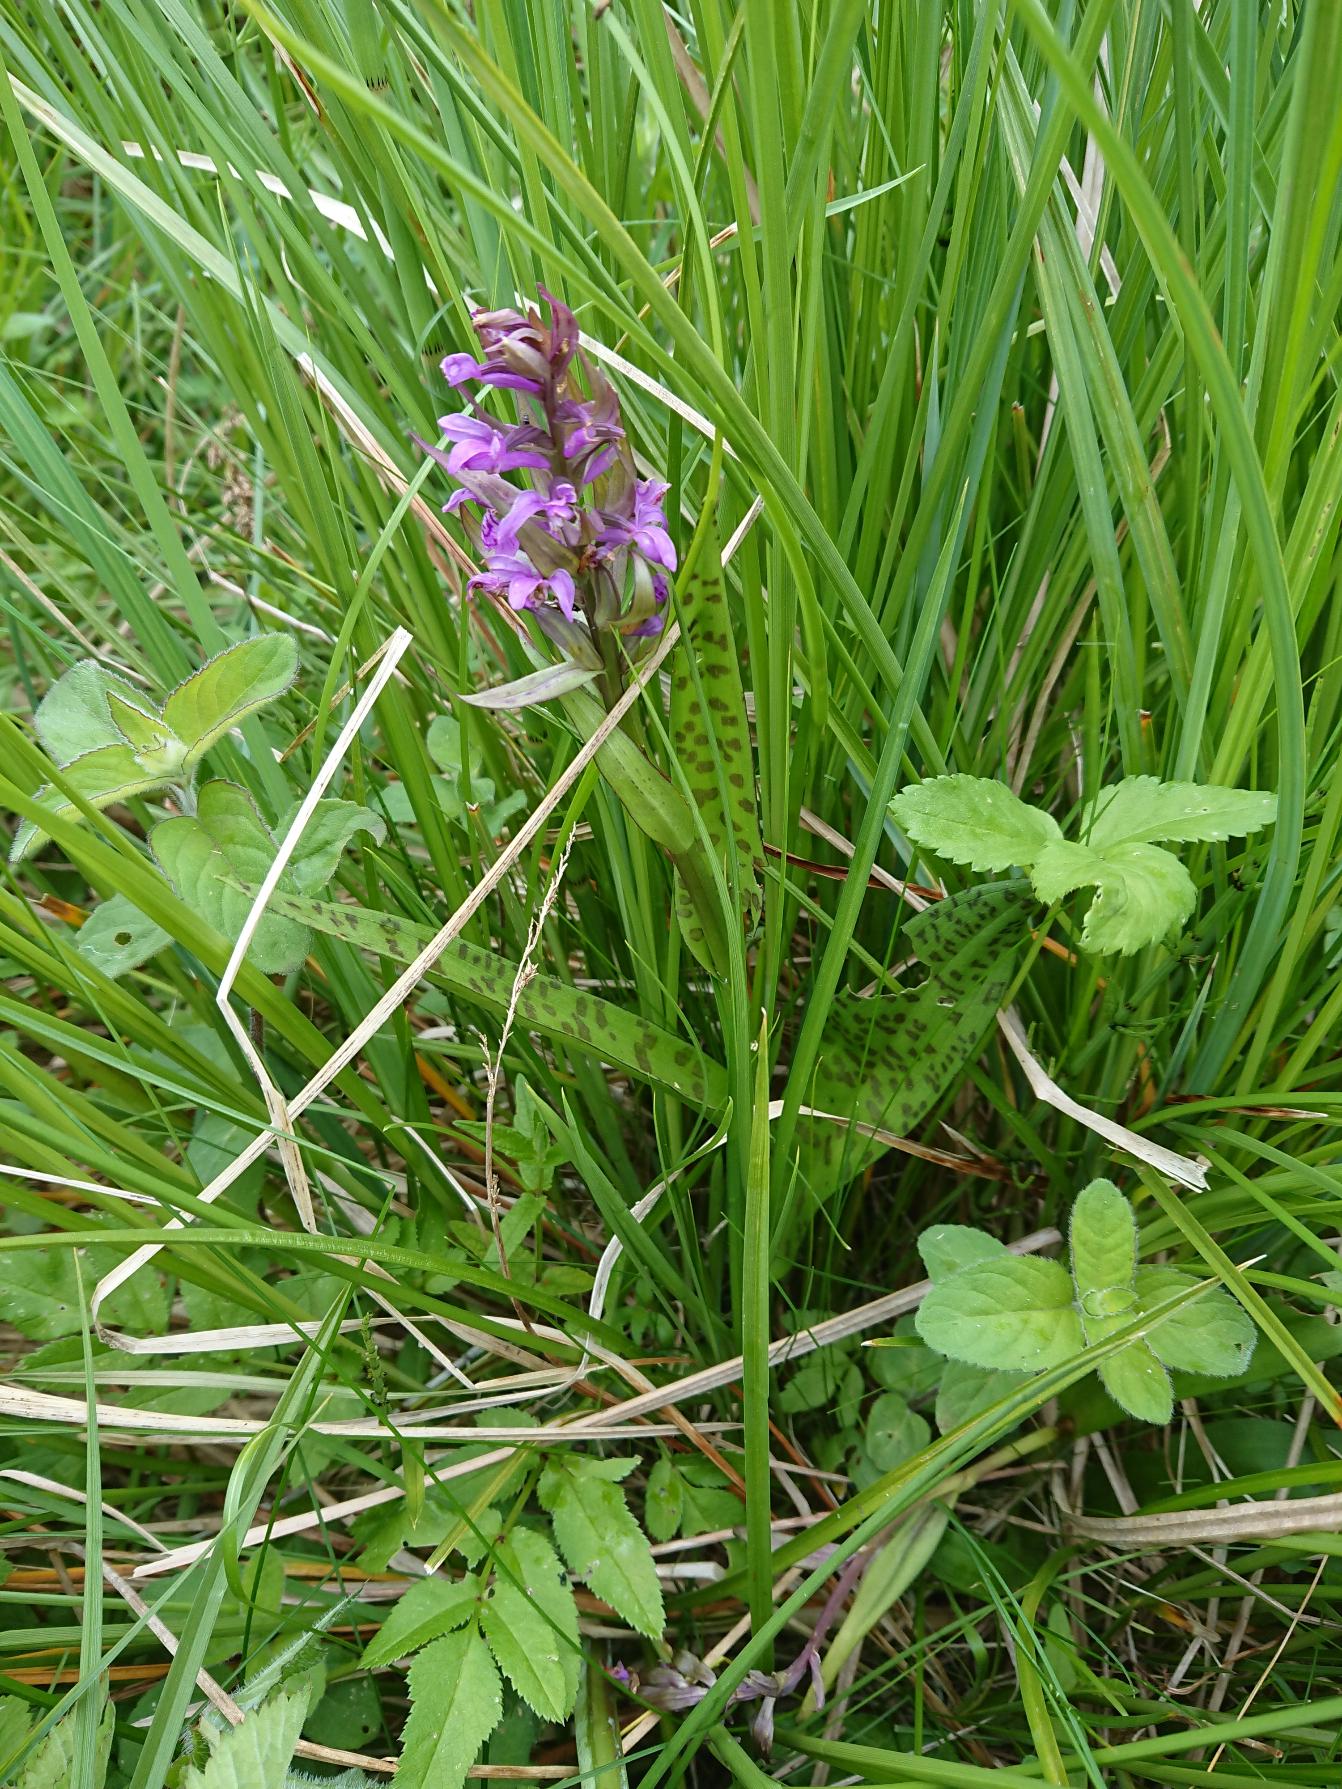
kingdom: Plantae
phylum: Tracheophyta
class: Liliopsida
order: Asparagales
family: Orchidaceae
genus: Dactylorhiza
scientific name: Dactylorhiza majalis
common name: Maj-gøgeurt
